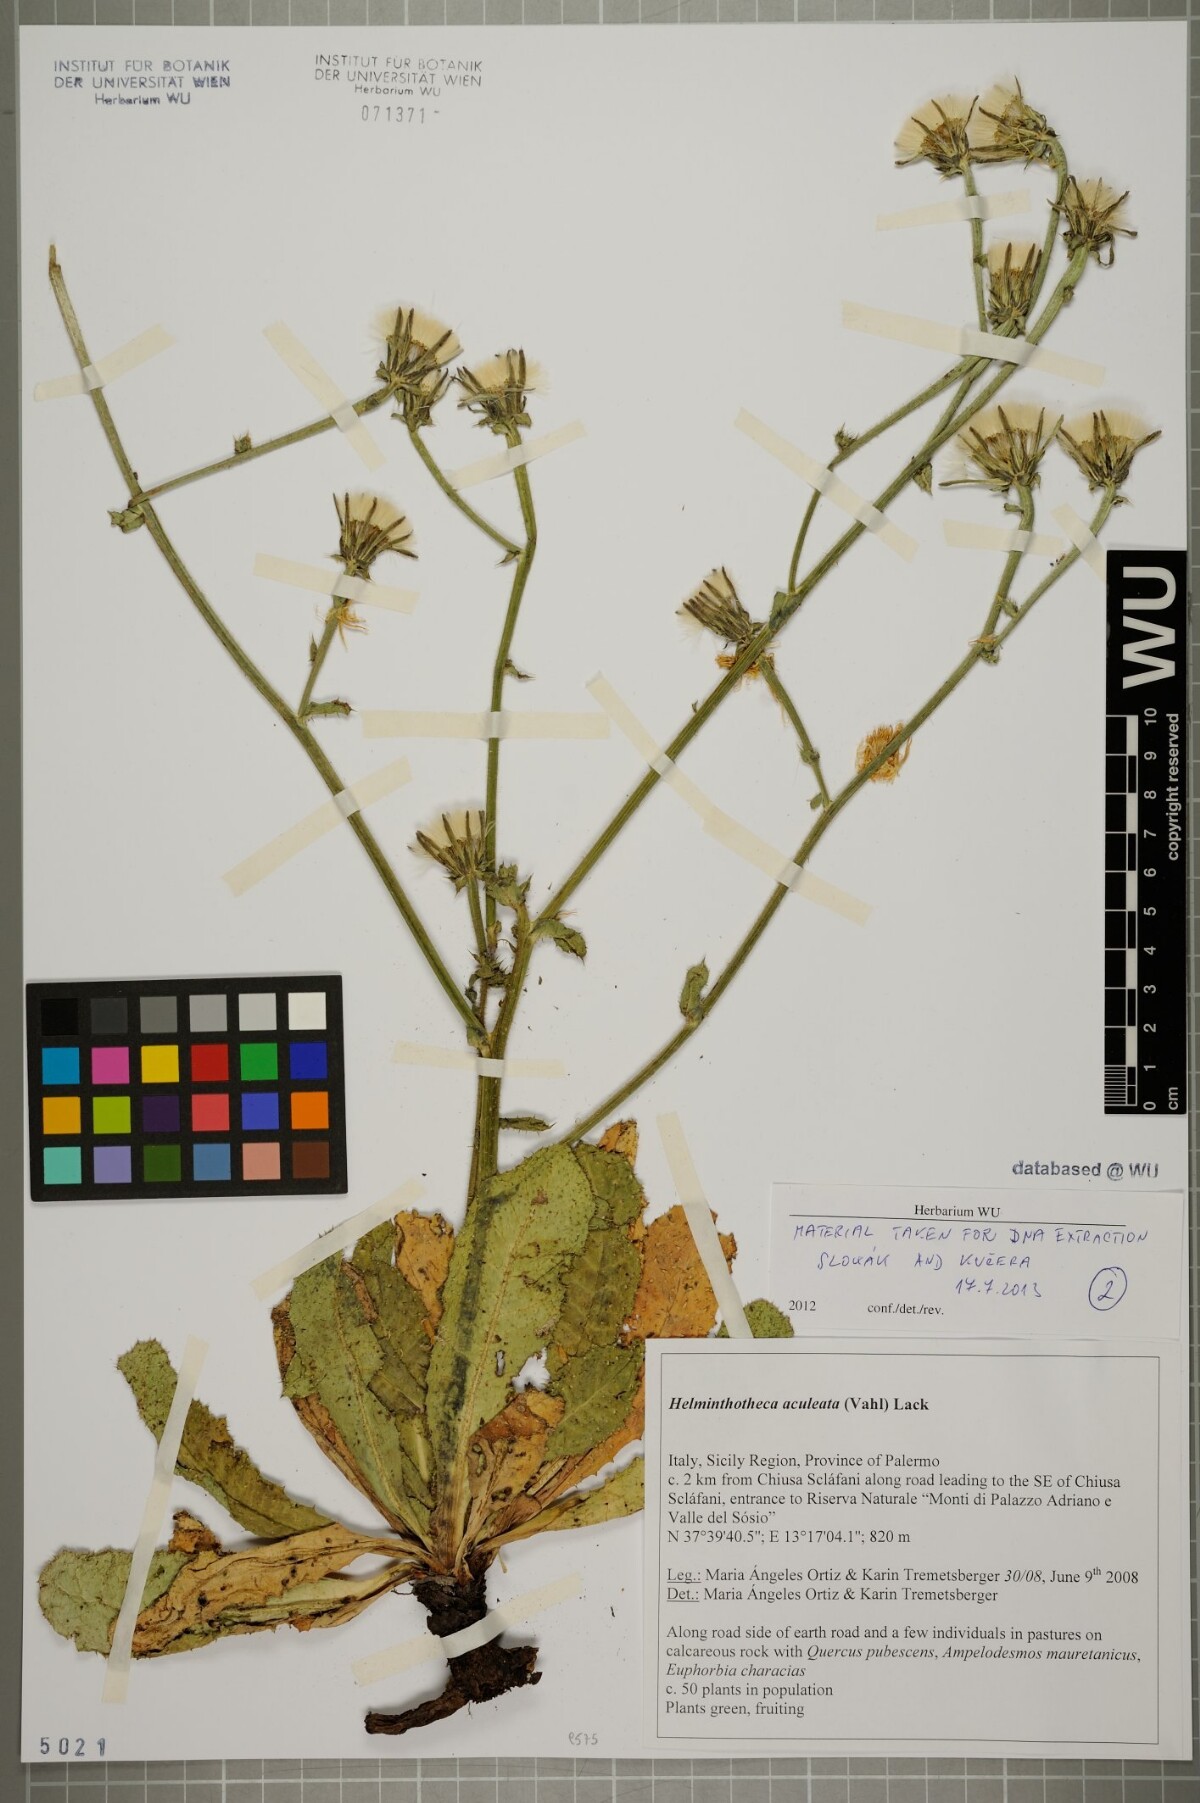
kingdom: Plantae
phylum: Tracheophyta
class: Magnoliopsida
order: Asterales
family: Asteraceae
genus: Helminthotheca
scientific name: Helminthotheca aculeata
